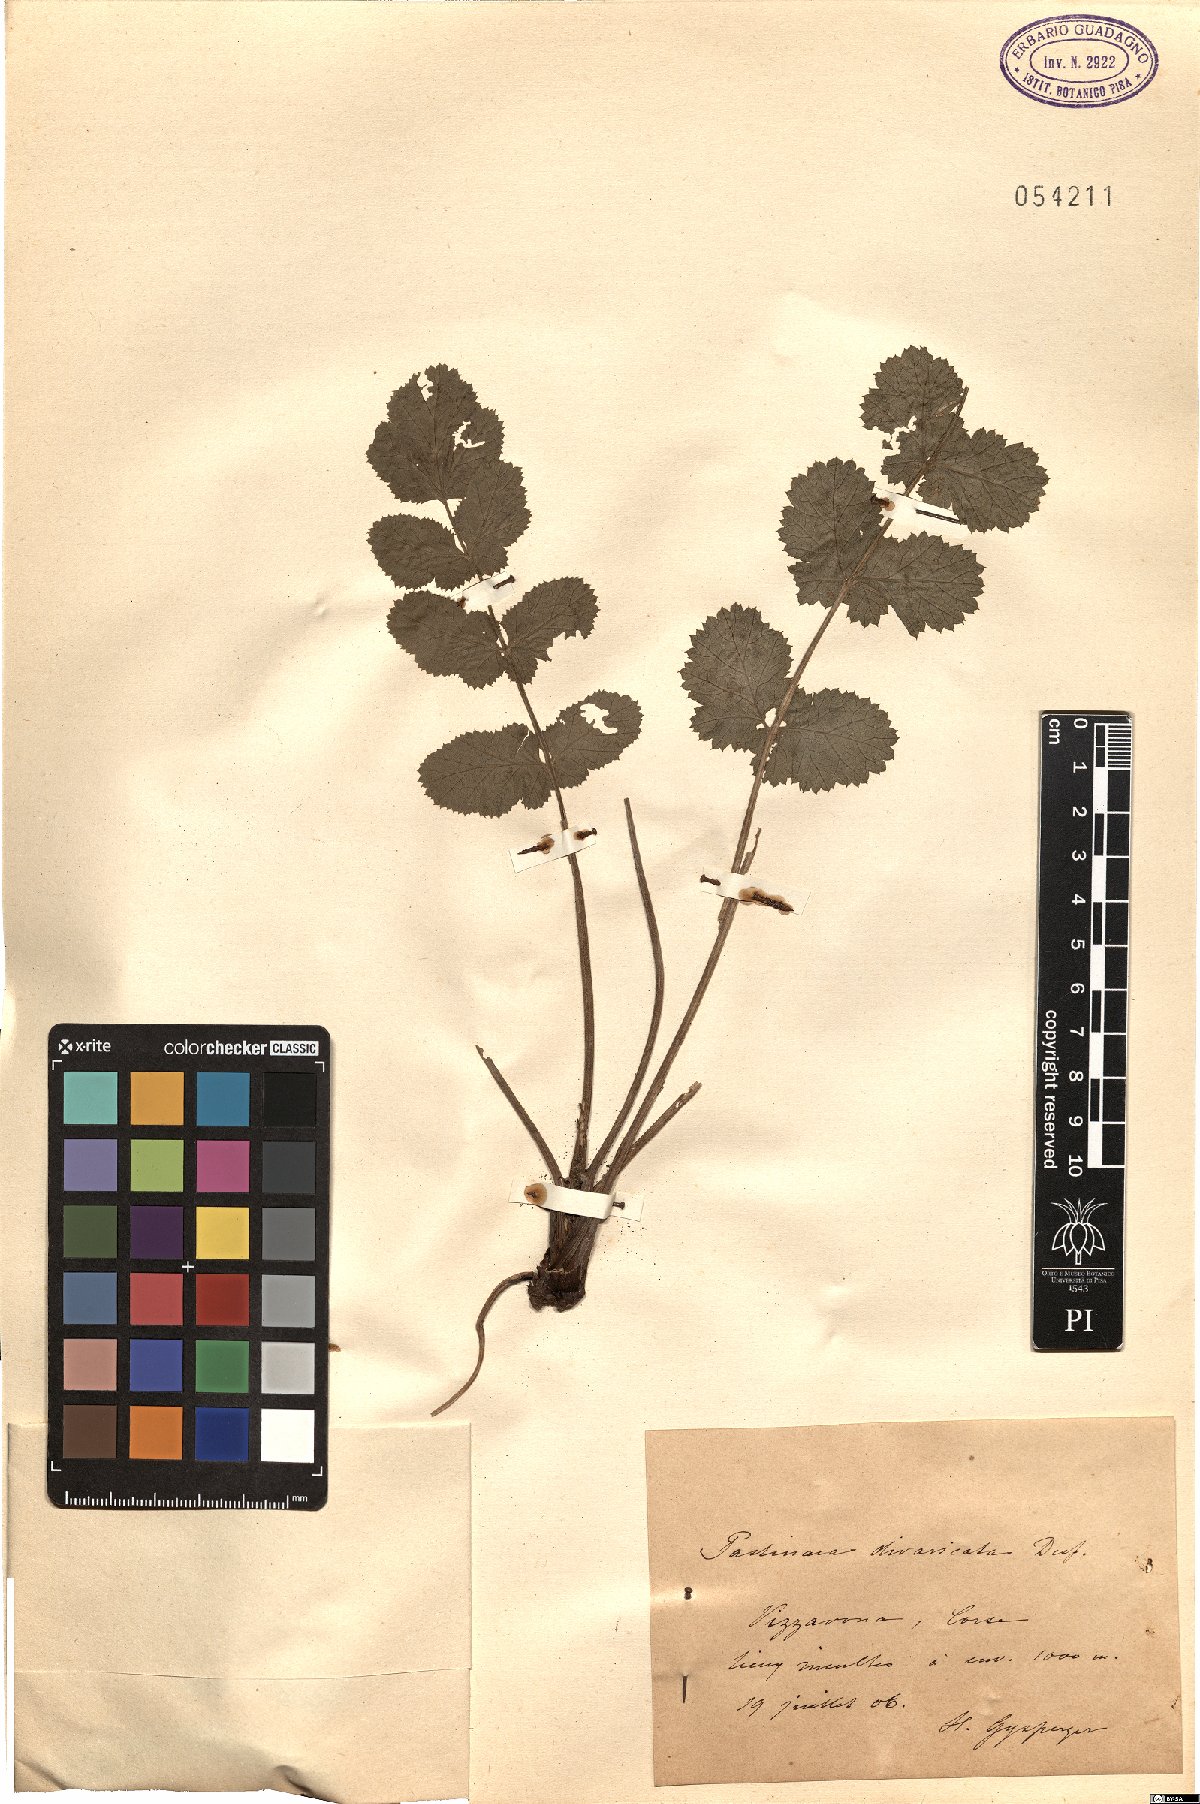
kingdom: Plantae
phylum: Tracheophyta
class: Magnoliopsida
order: Apiales
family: Apiaceae
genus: Pastinaca
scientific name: Pastinaca kochii
